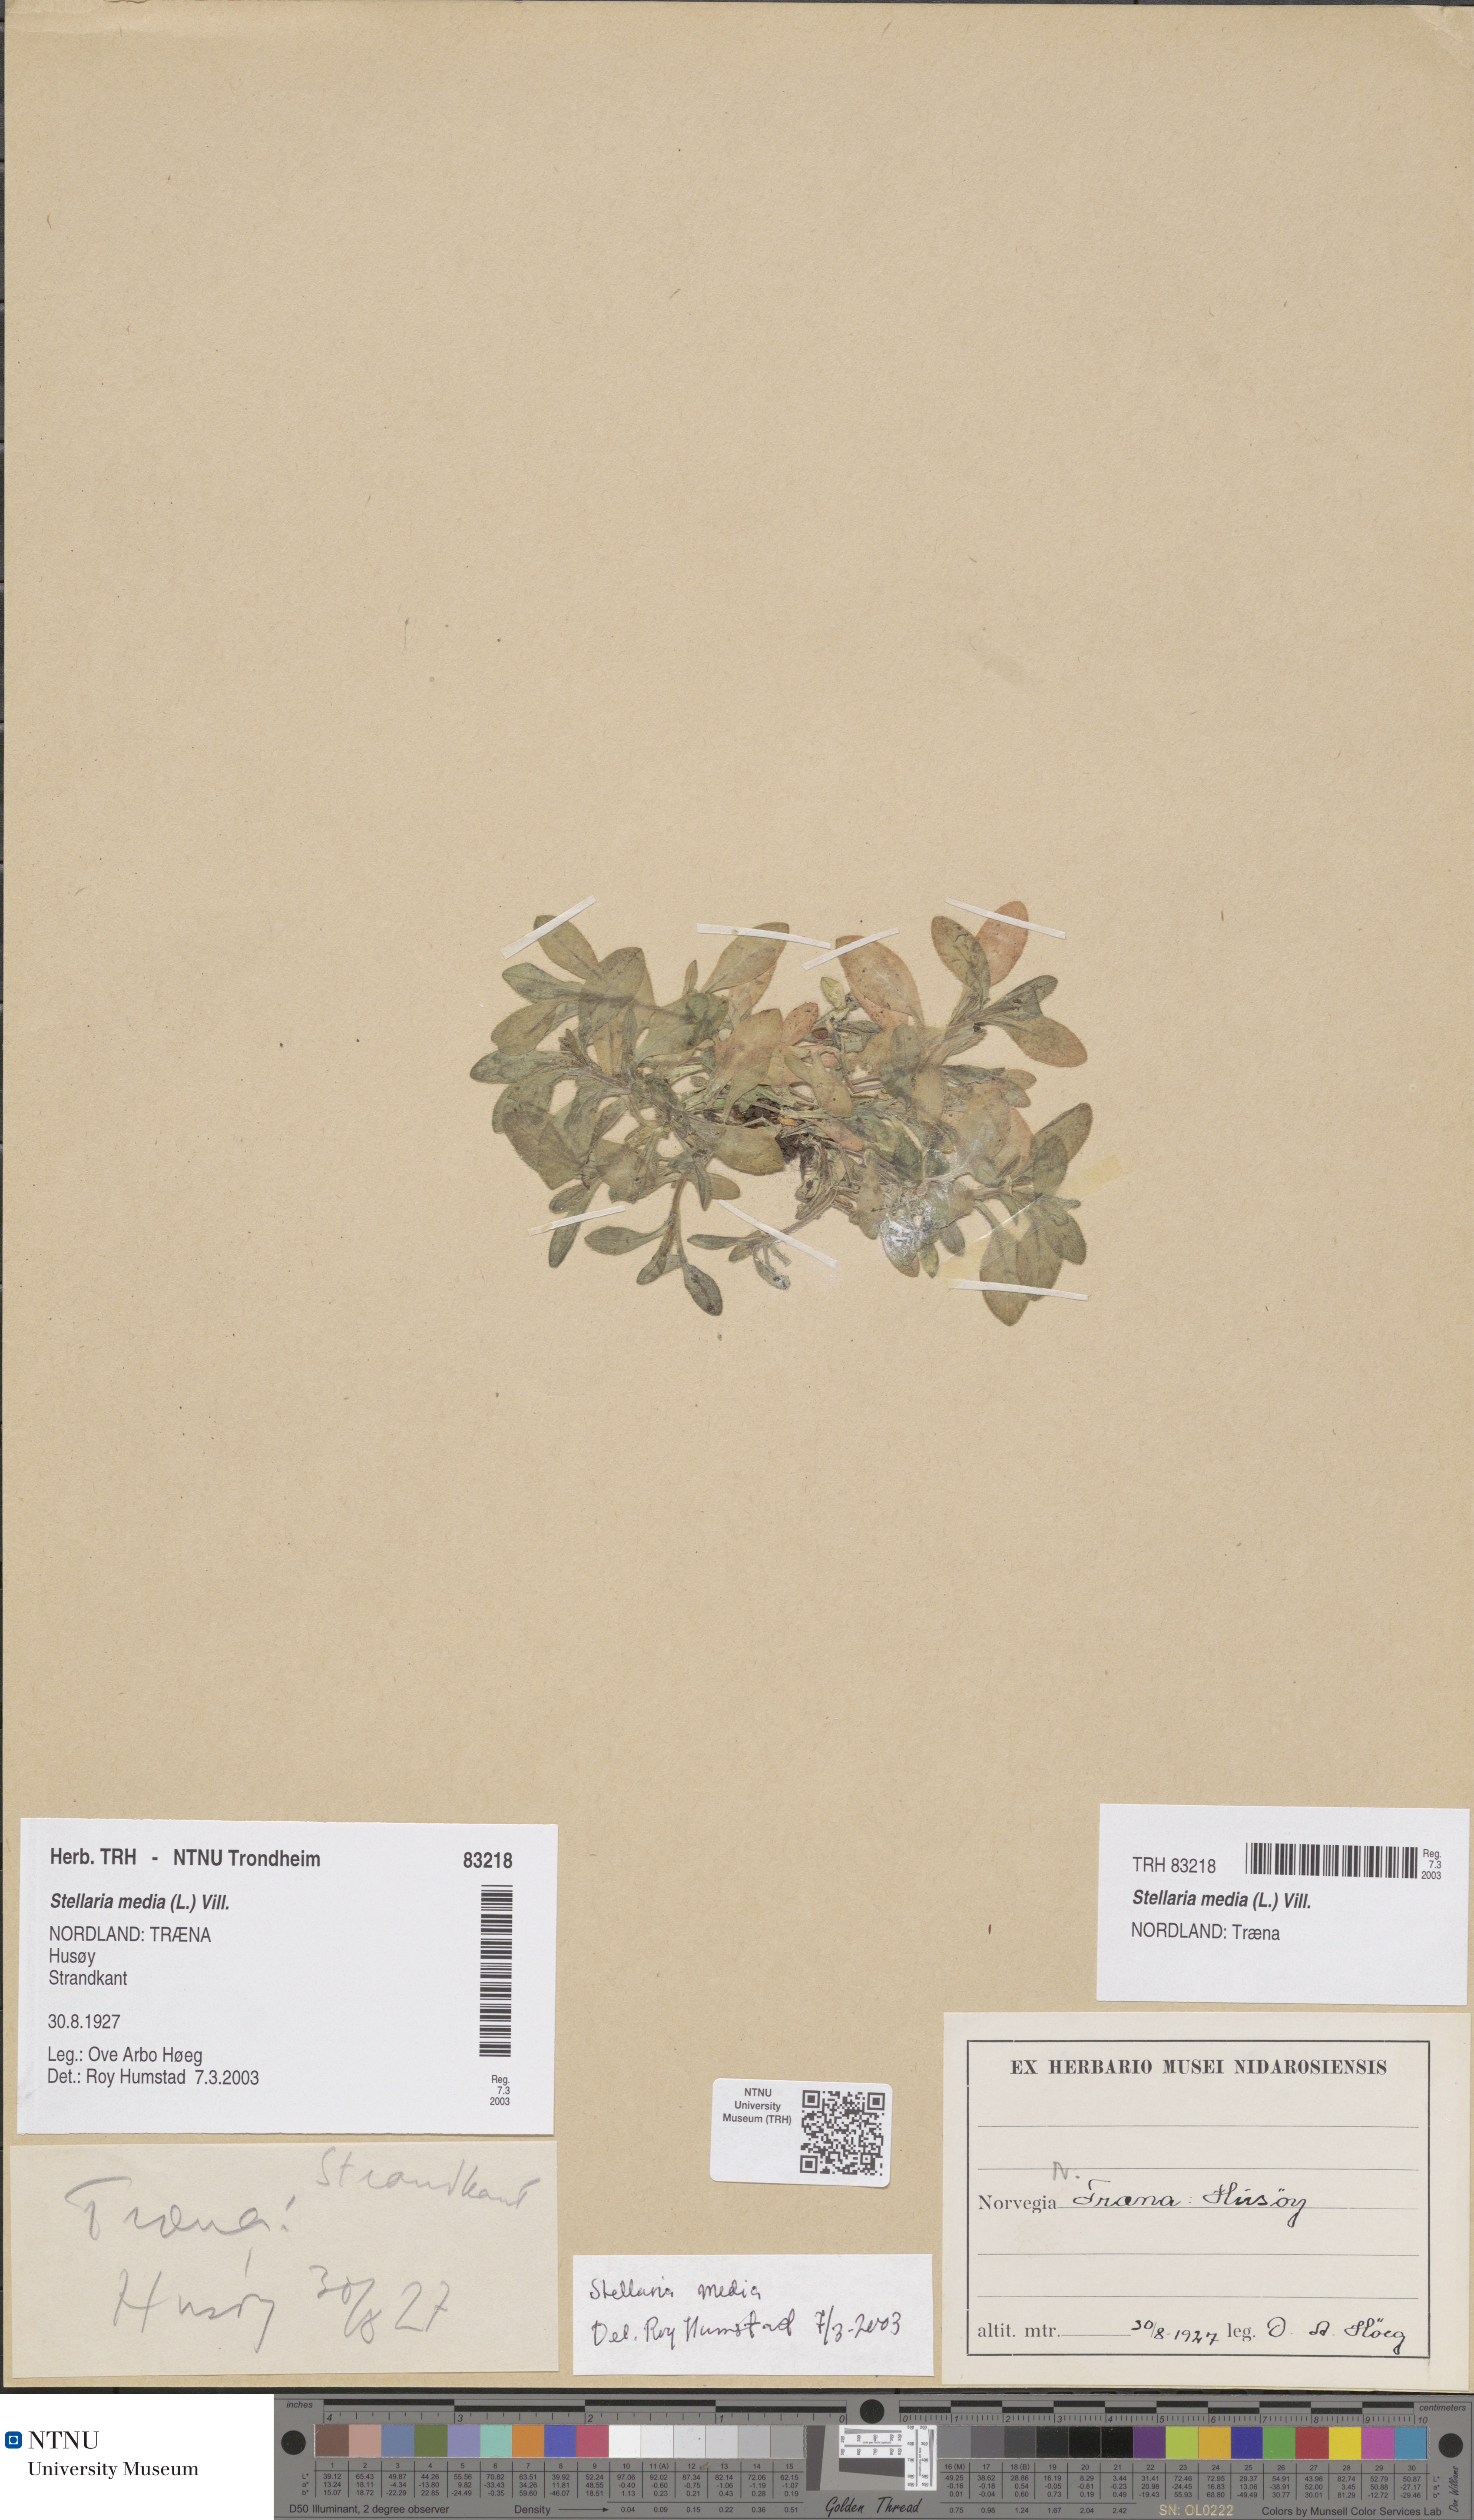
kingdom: Plantae
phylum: Tracheophyta
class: Magnoliopsida
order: Caryophyllales
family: Caryophyllaceae
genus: Stellaria
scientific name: Stellaria media
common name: Common chickweed
